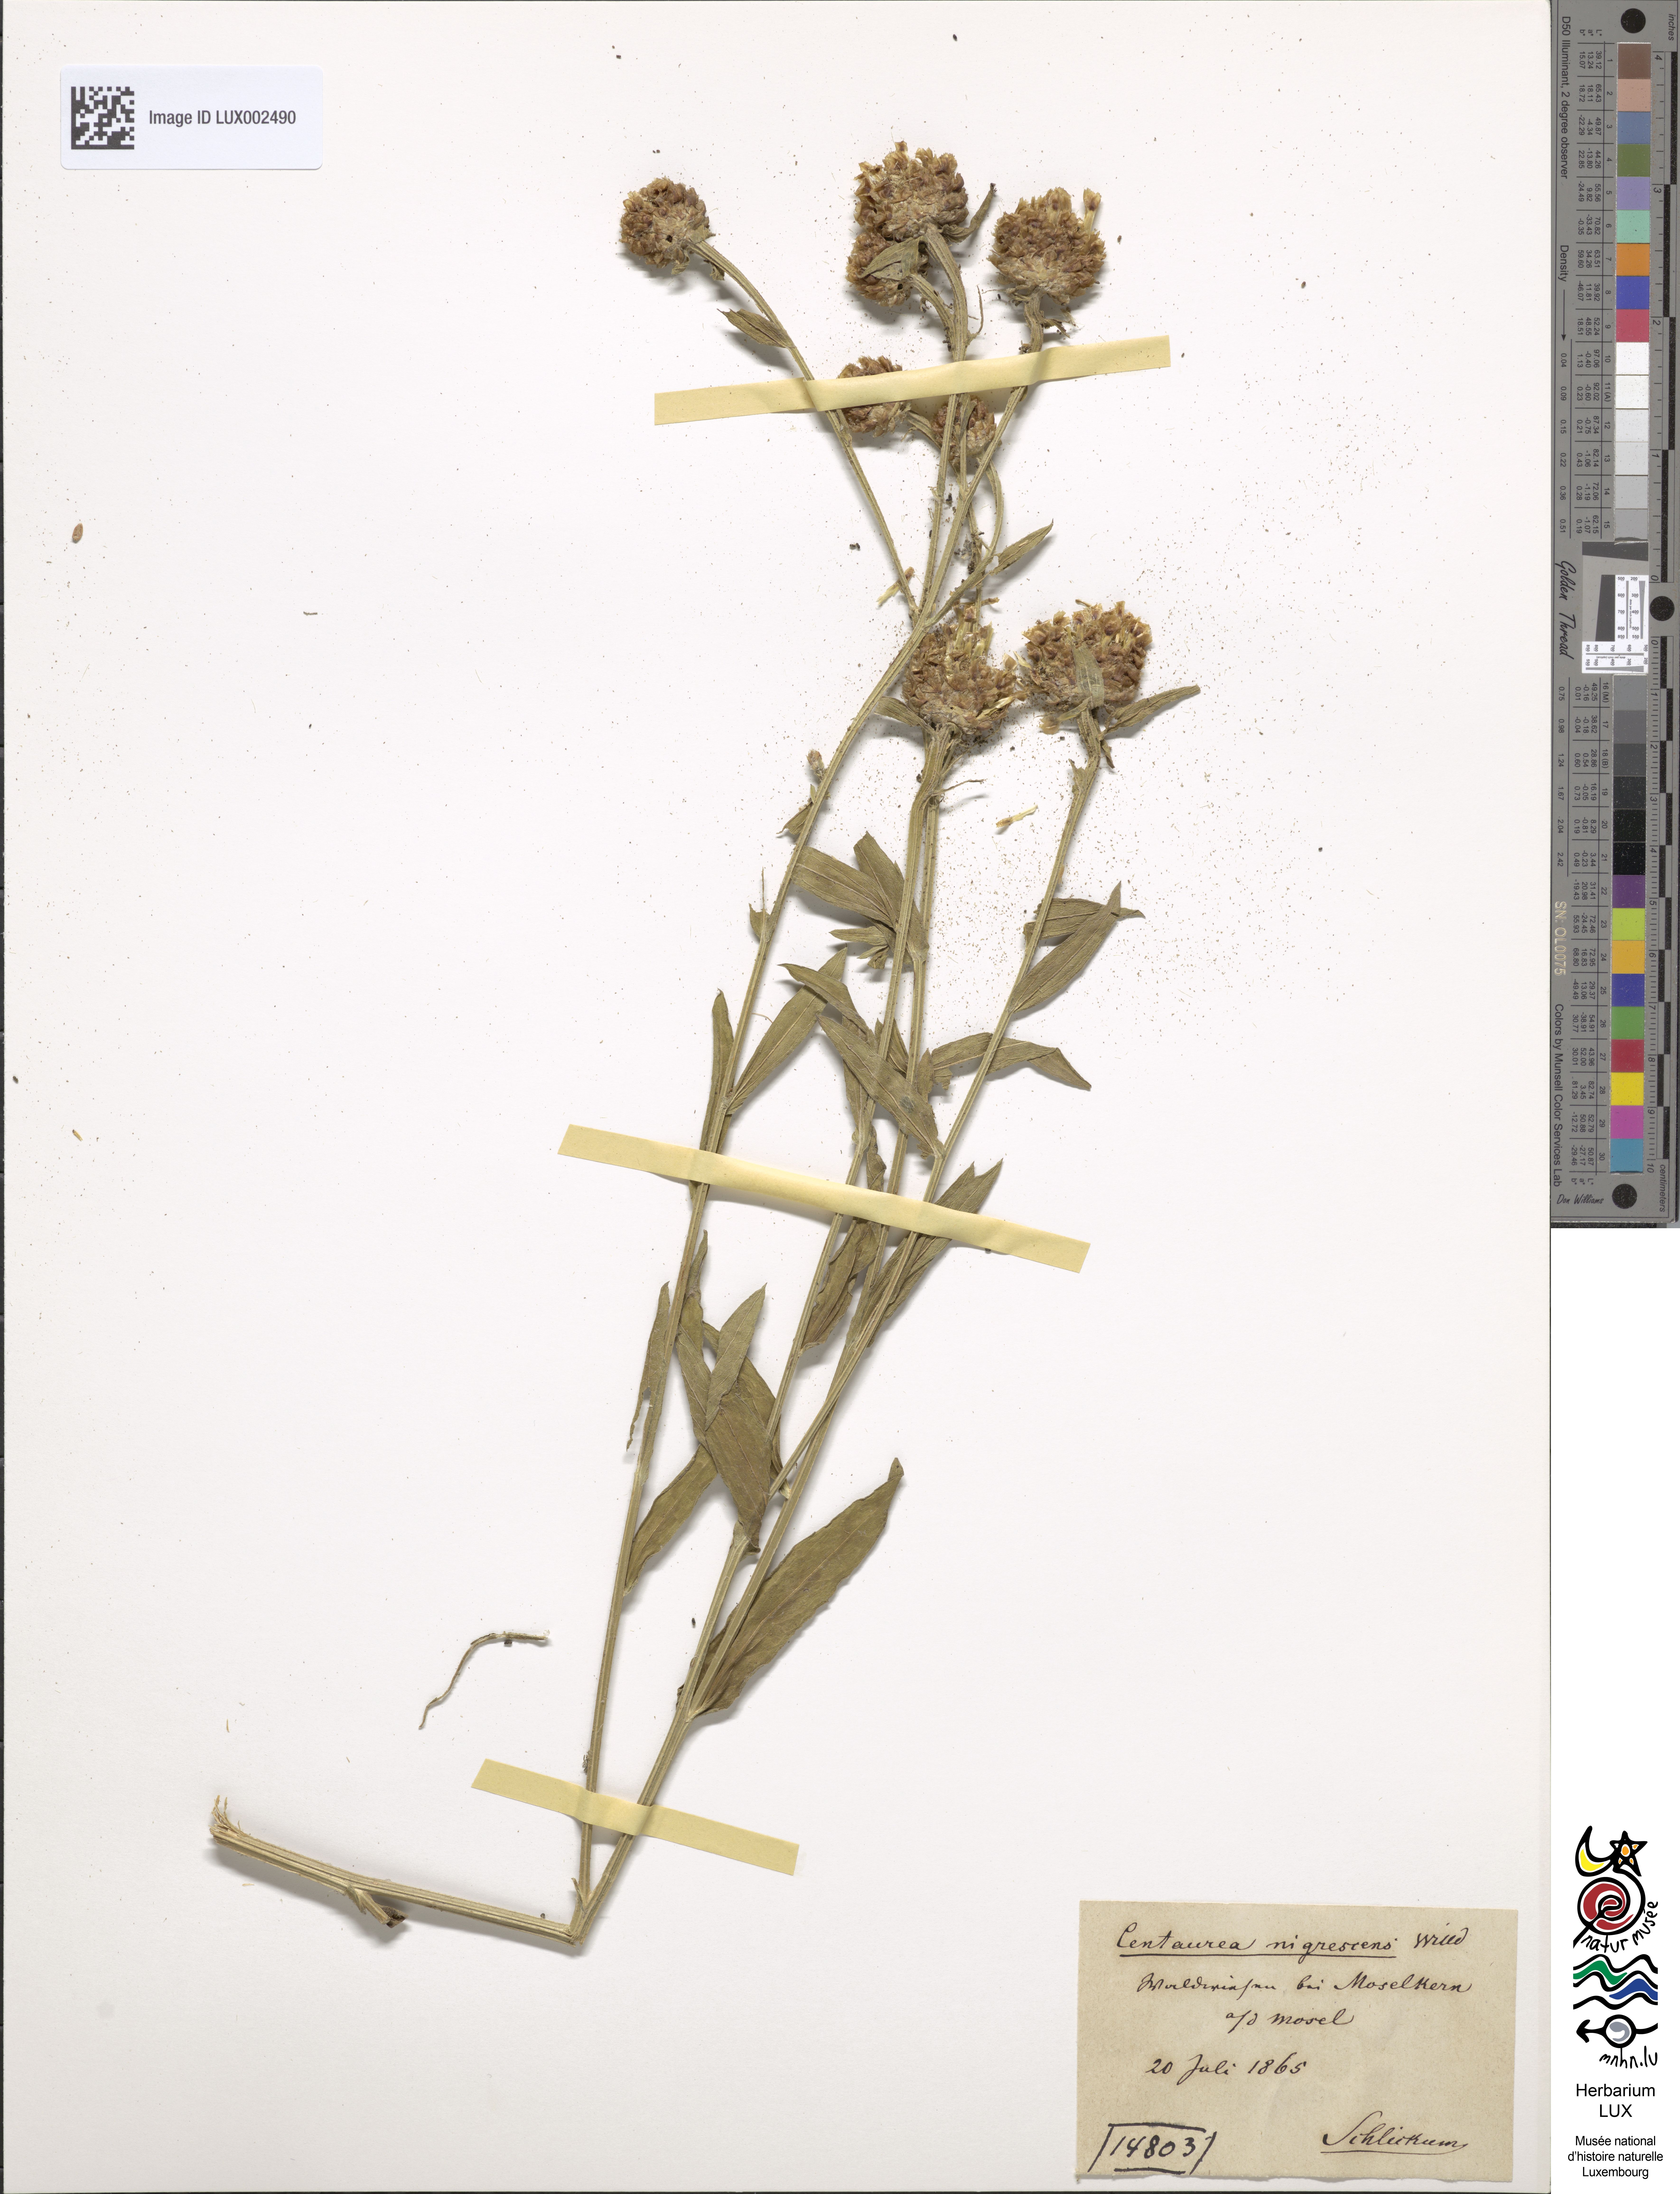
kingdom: Plantae
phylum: Tracheophyta
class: Magnoliopsida
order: Asterales
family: Asteraceae
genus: Centaurea
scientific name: Centaurea nigrescens
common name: Tyrol knapweed
